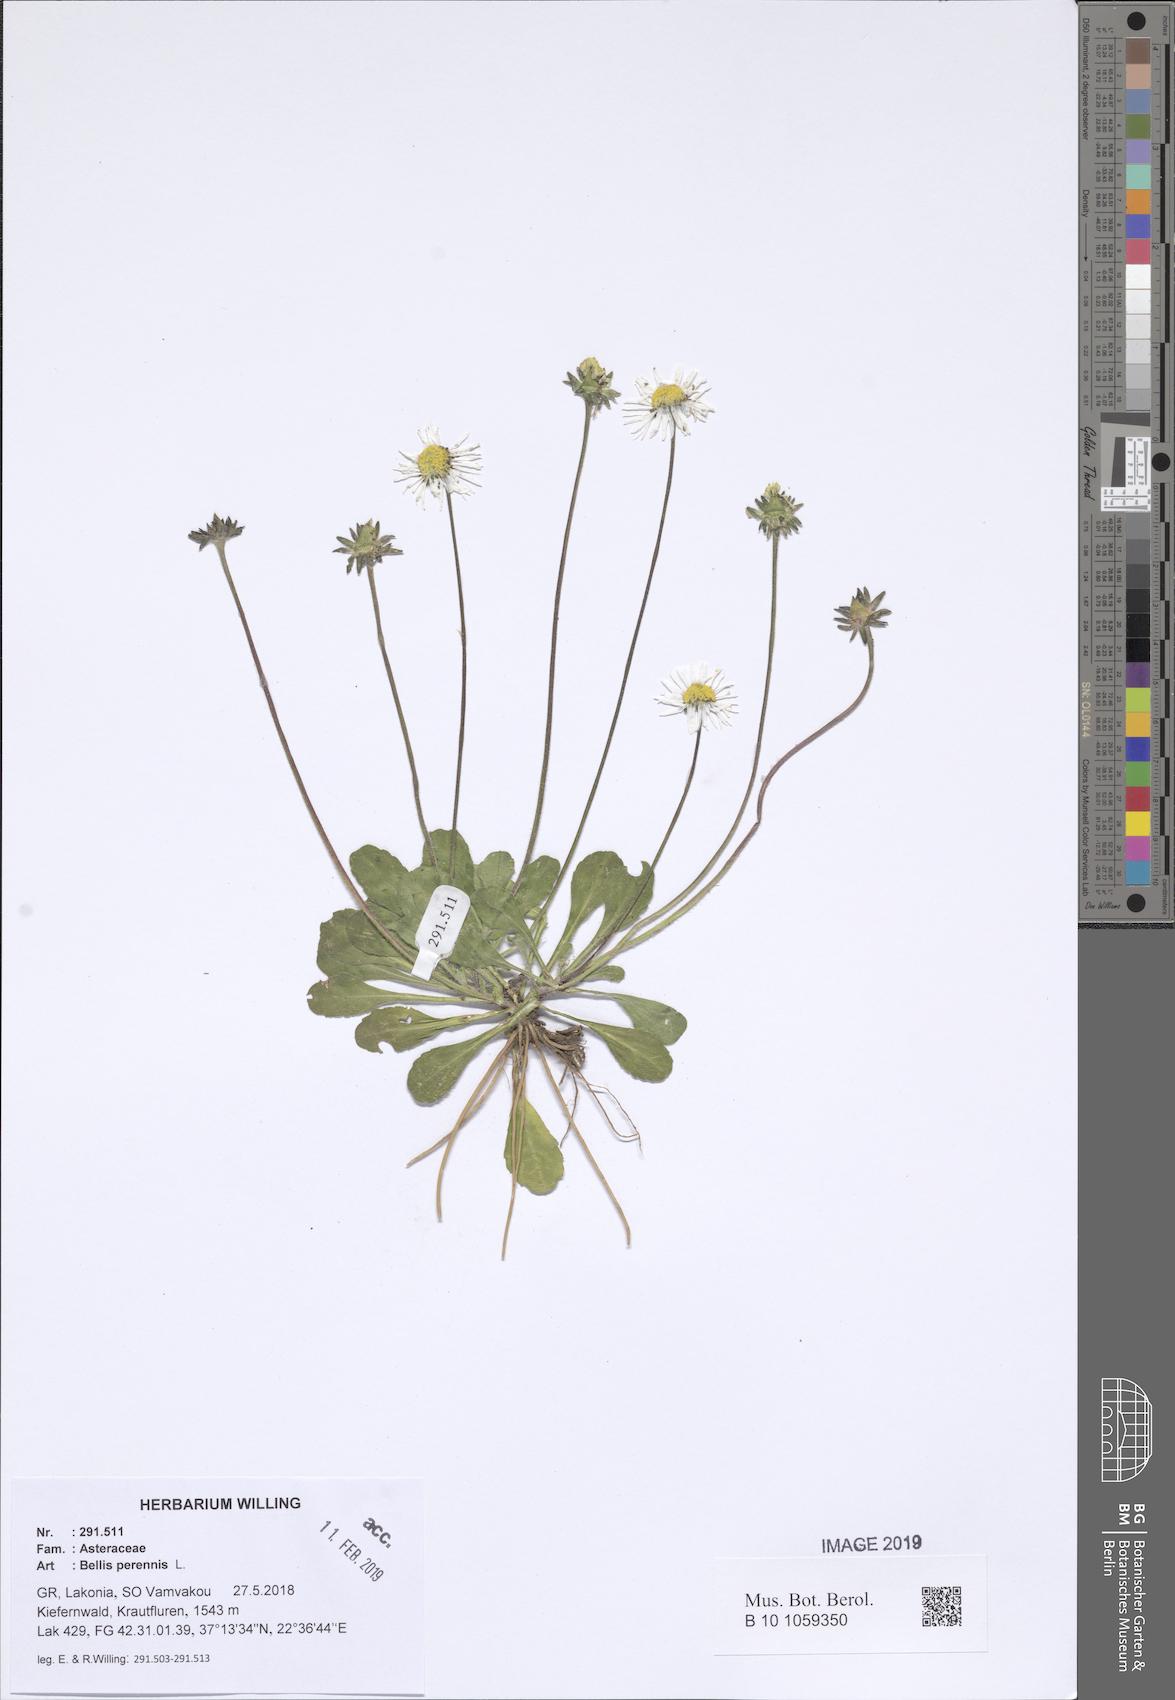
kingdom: Plantae
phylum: Tracheophyta
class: Magnoliopsida
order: Asterales
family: Asteraceae
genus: Bellis
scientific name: Bellis perennis
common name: Lawndaisy
